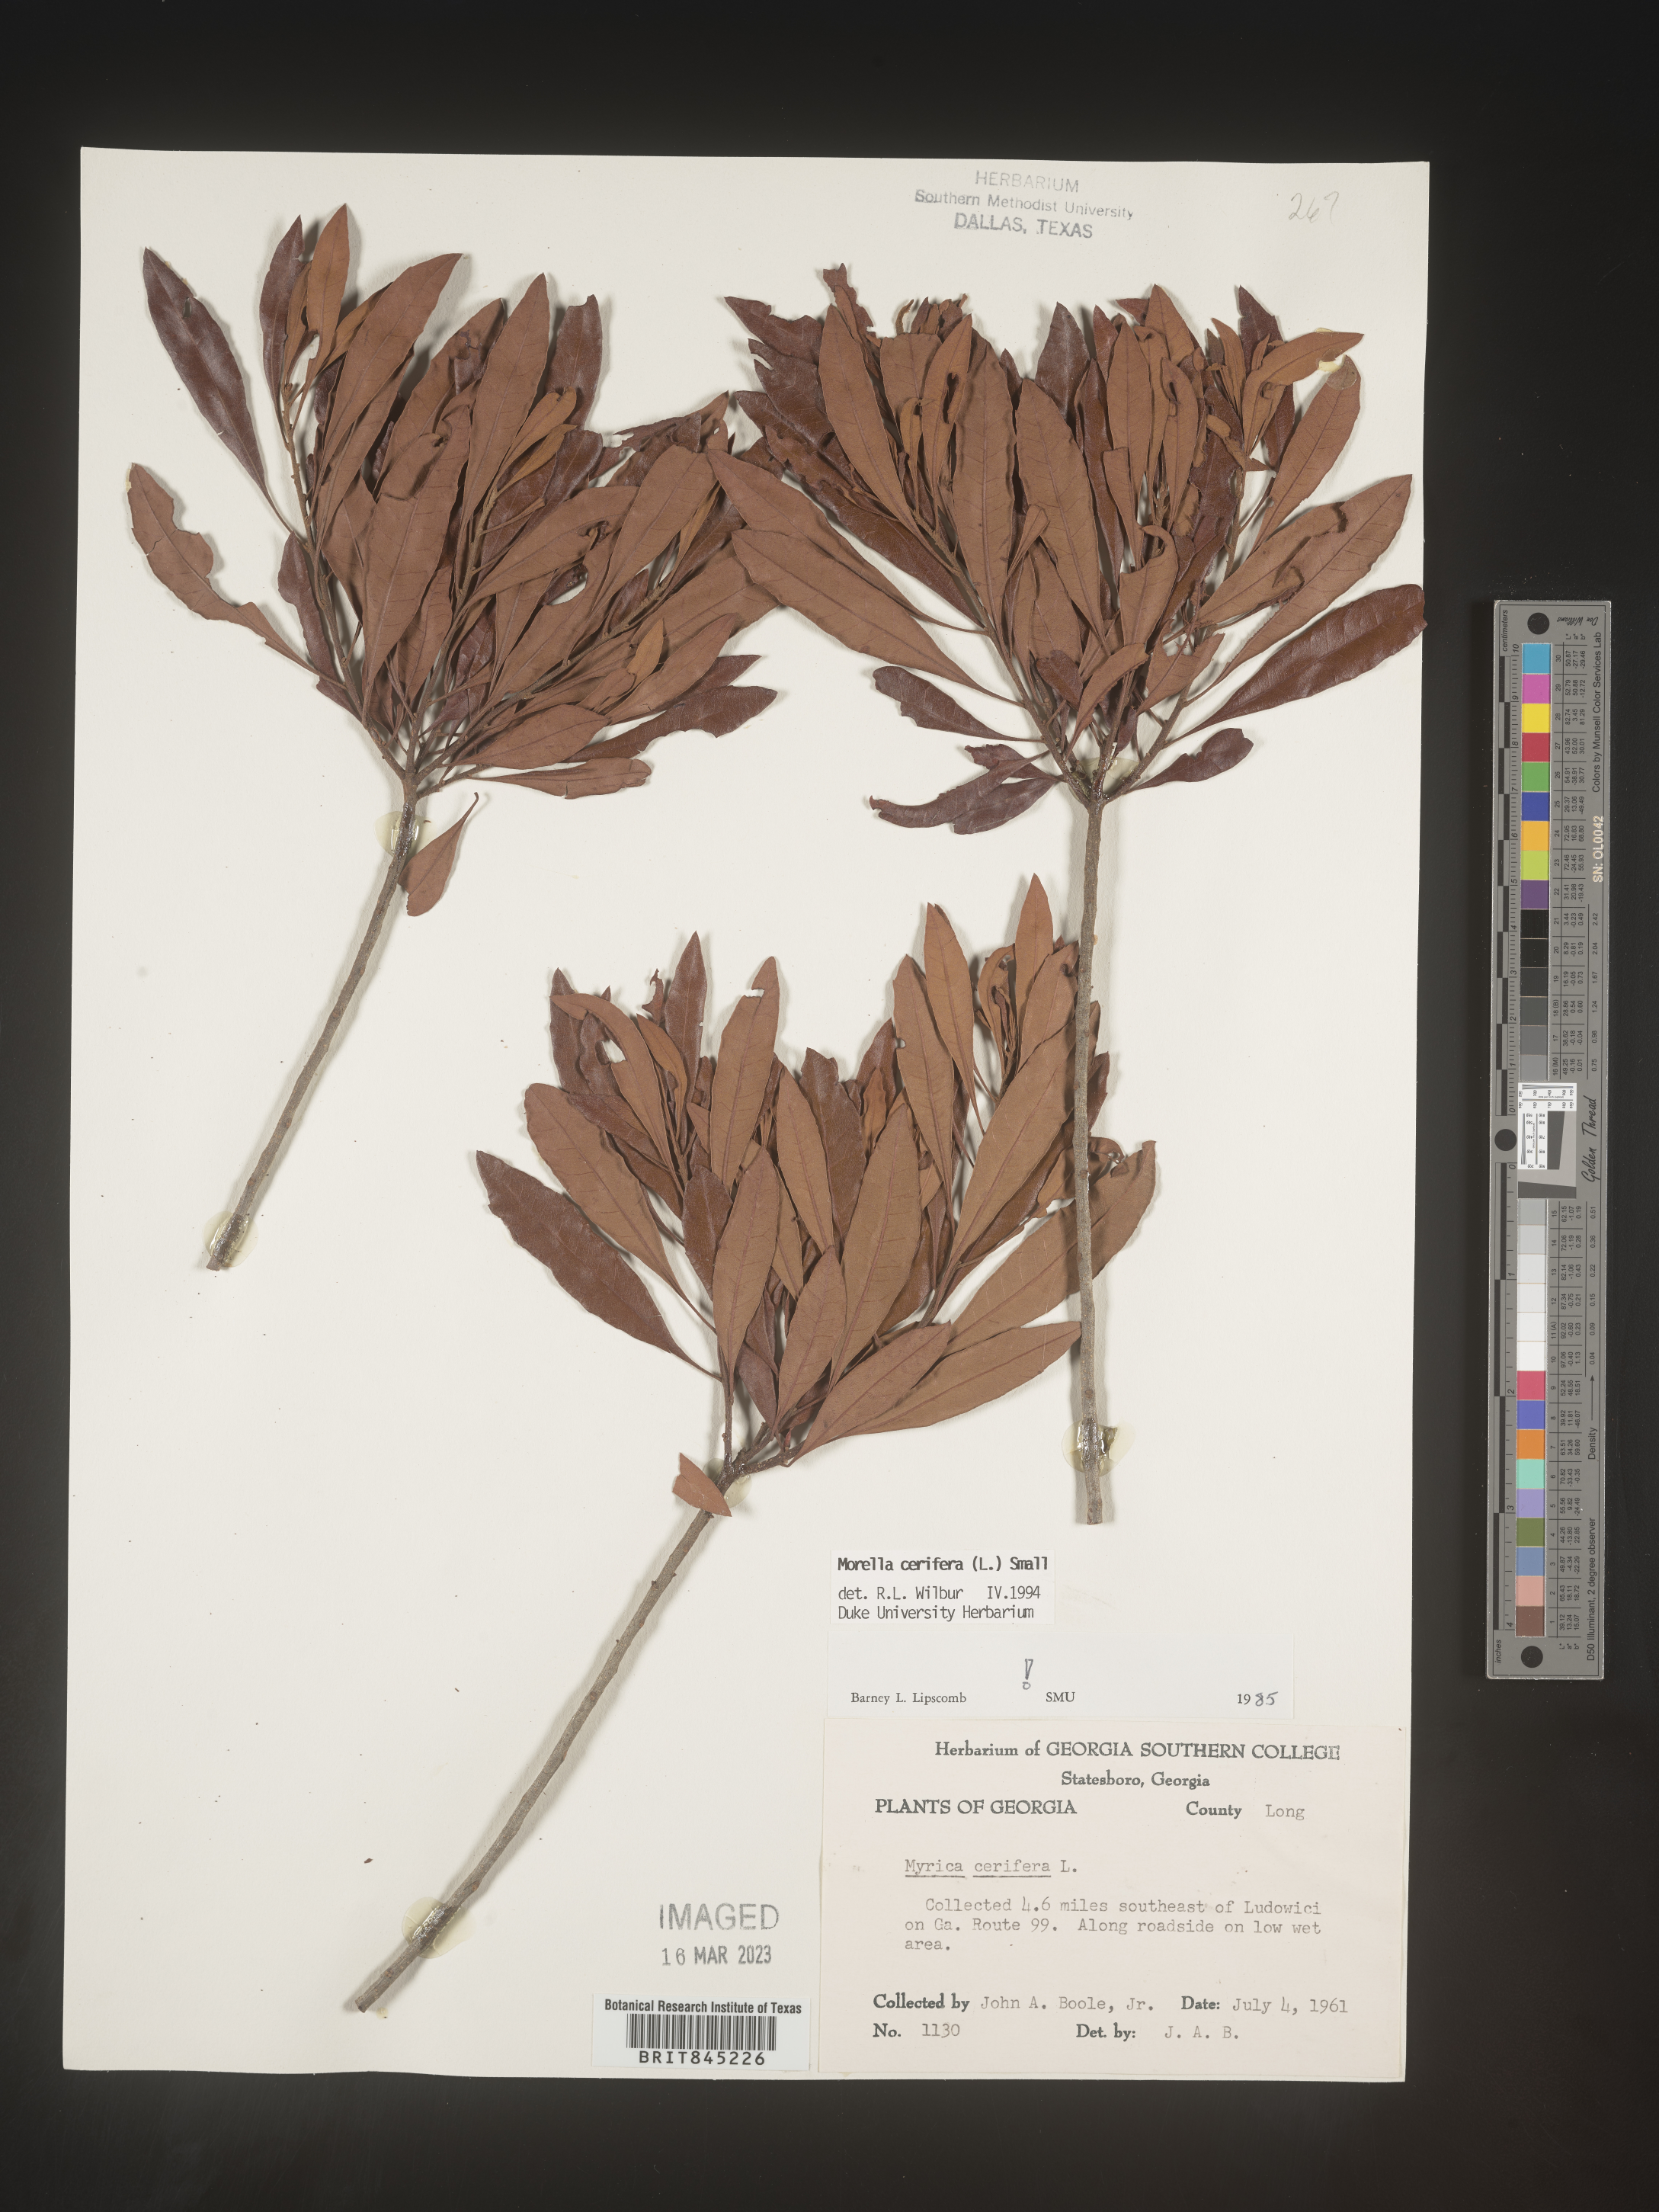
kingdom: Plantae
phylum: Tracheophyta
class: Magnoliopsida
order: Fagales
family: Myricaceae
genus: Morella
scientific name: Morella cerifera
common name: Wax myrtle
